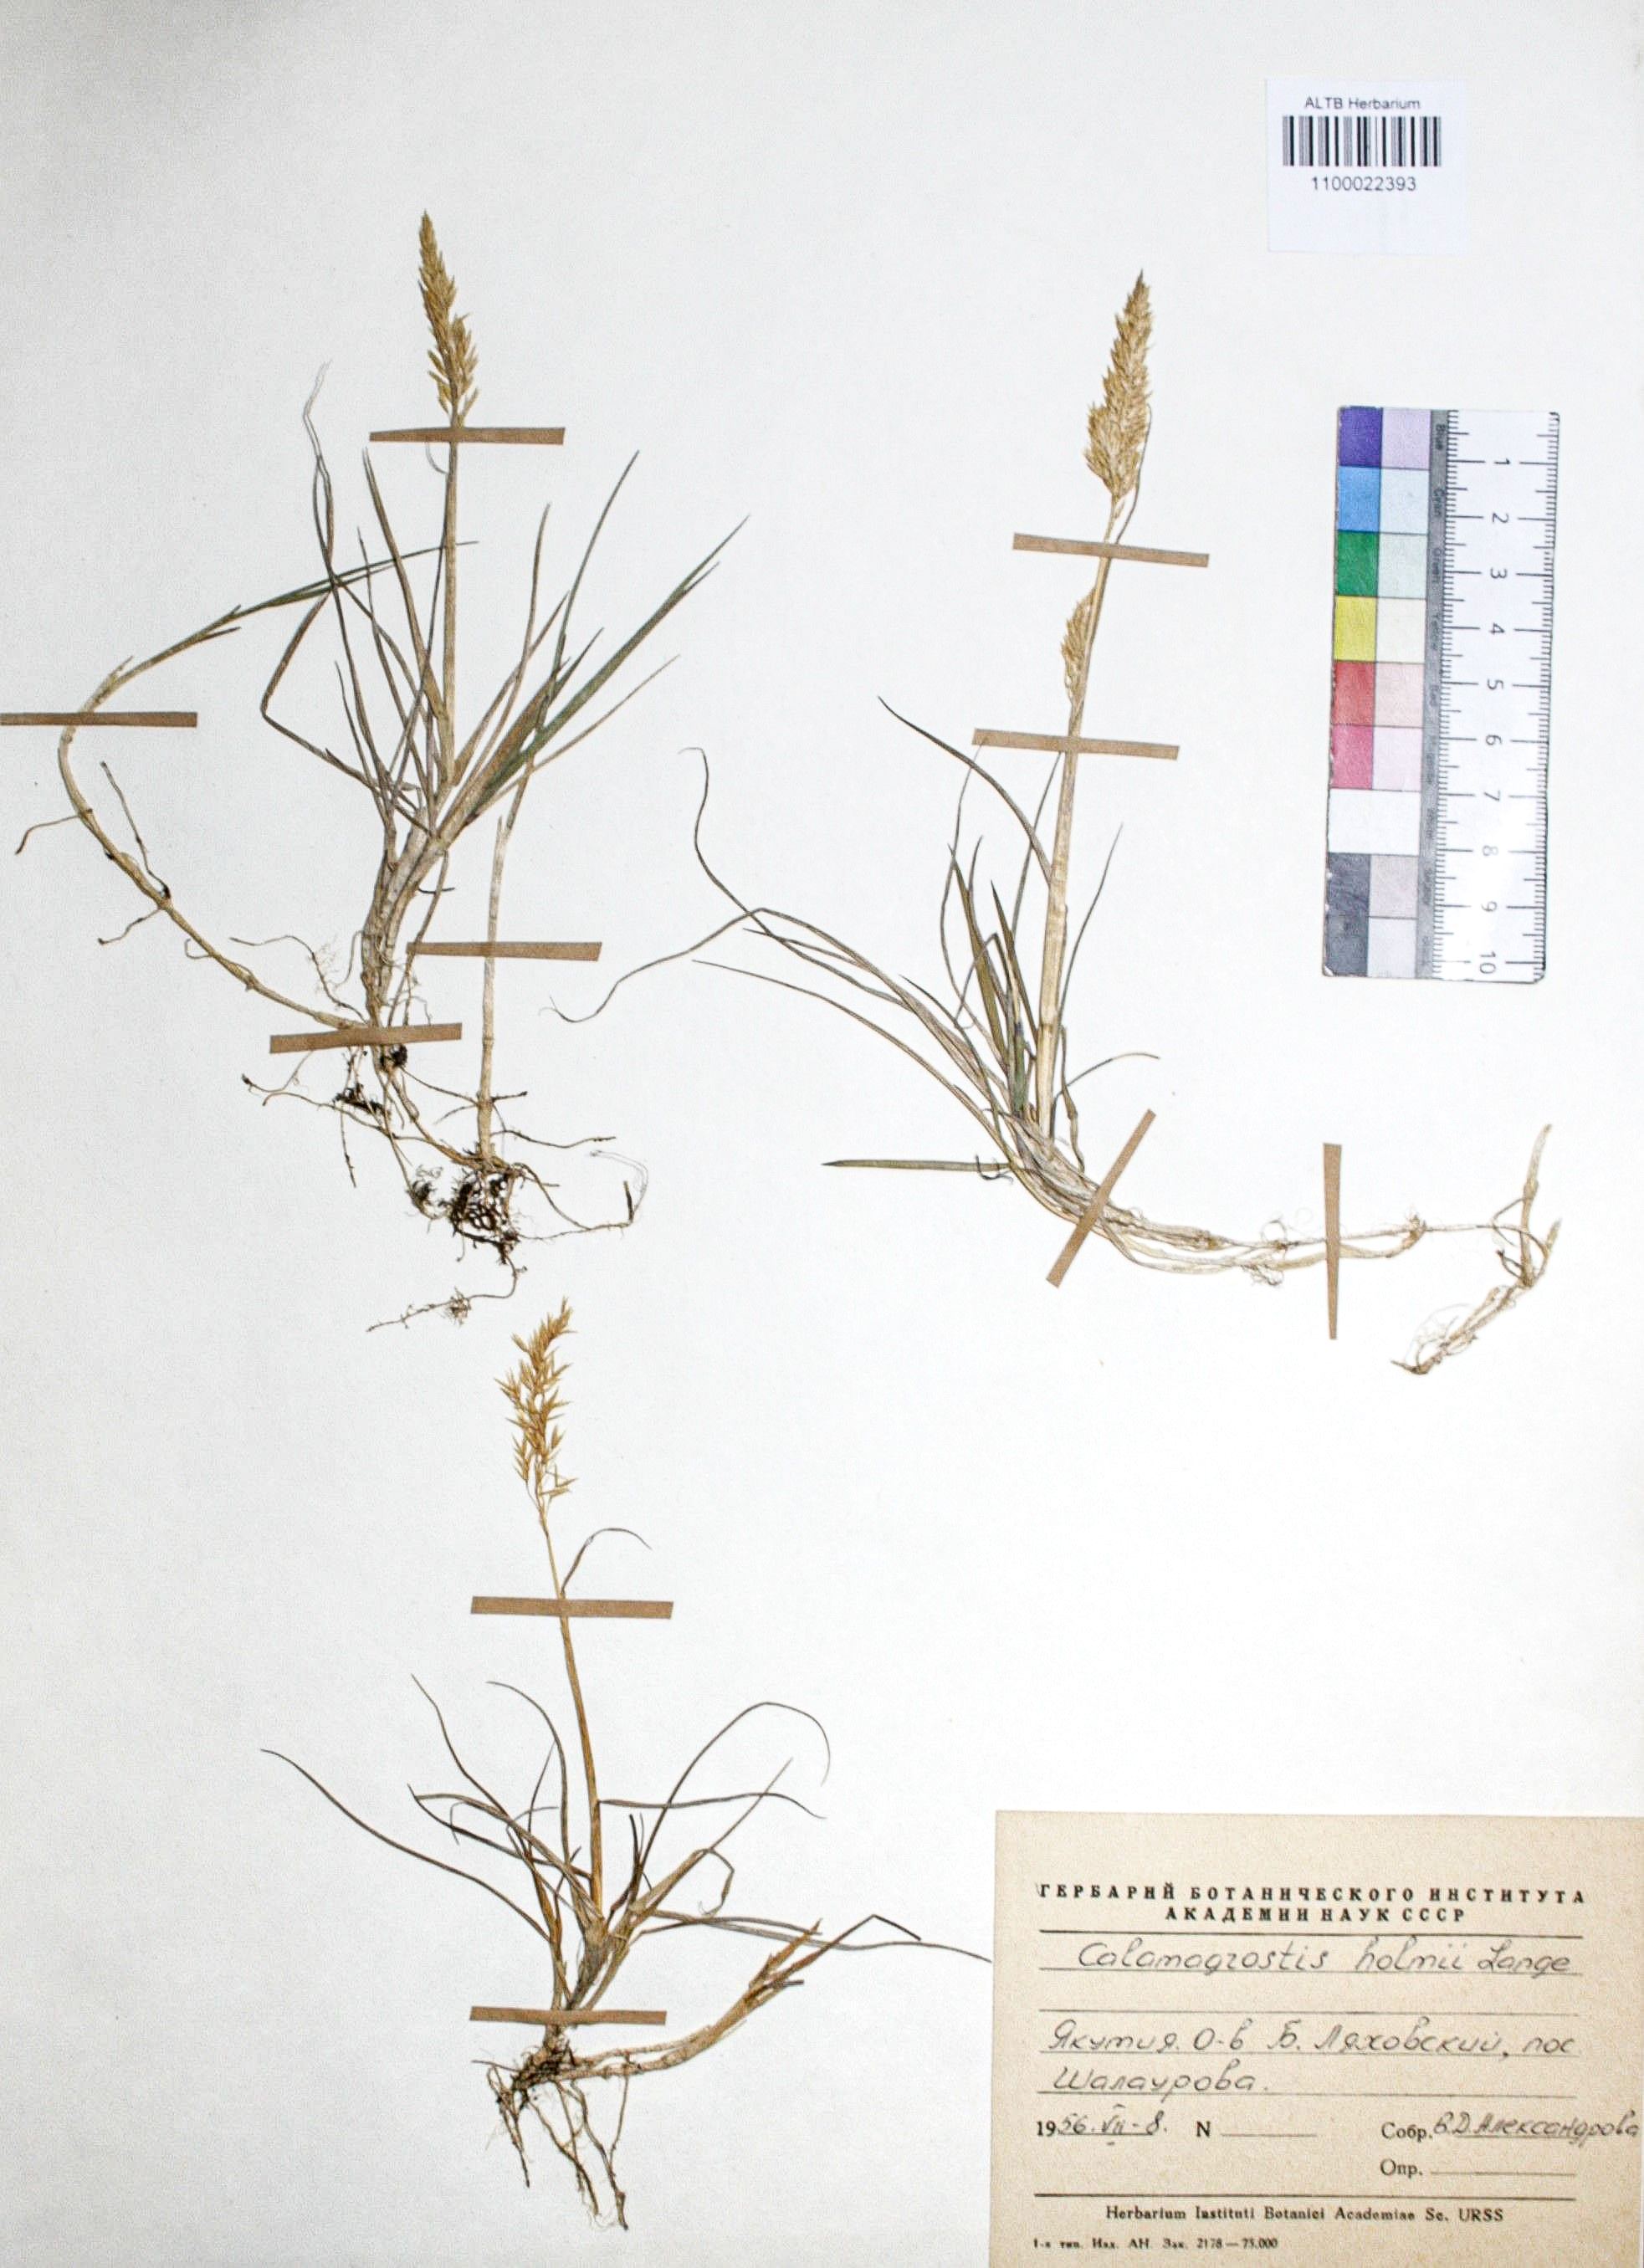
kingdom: Plantae
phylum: Tracheophyta
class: Liliopsida
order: Poales
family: Poaceae
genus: Calamagrostis
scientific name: Calamagrostis holmii
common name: Holm's reedgrass
